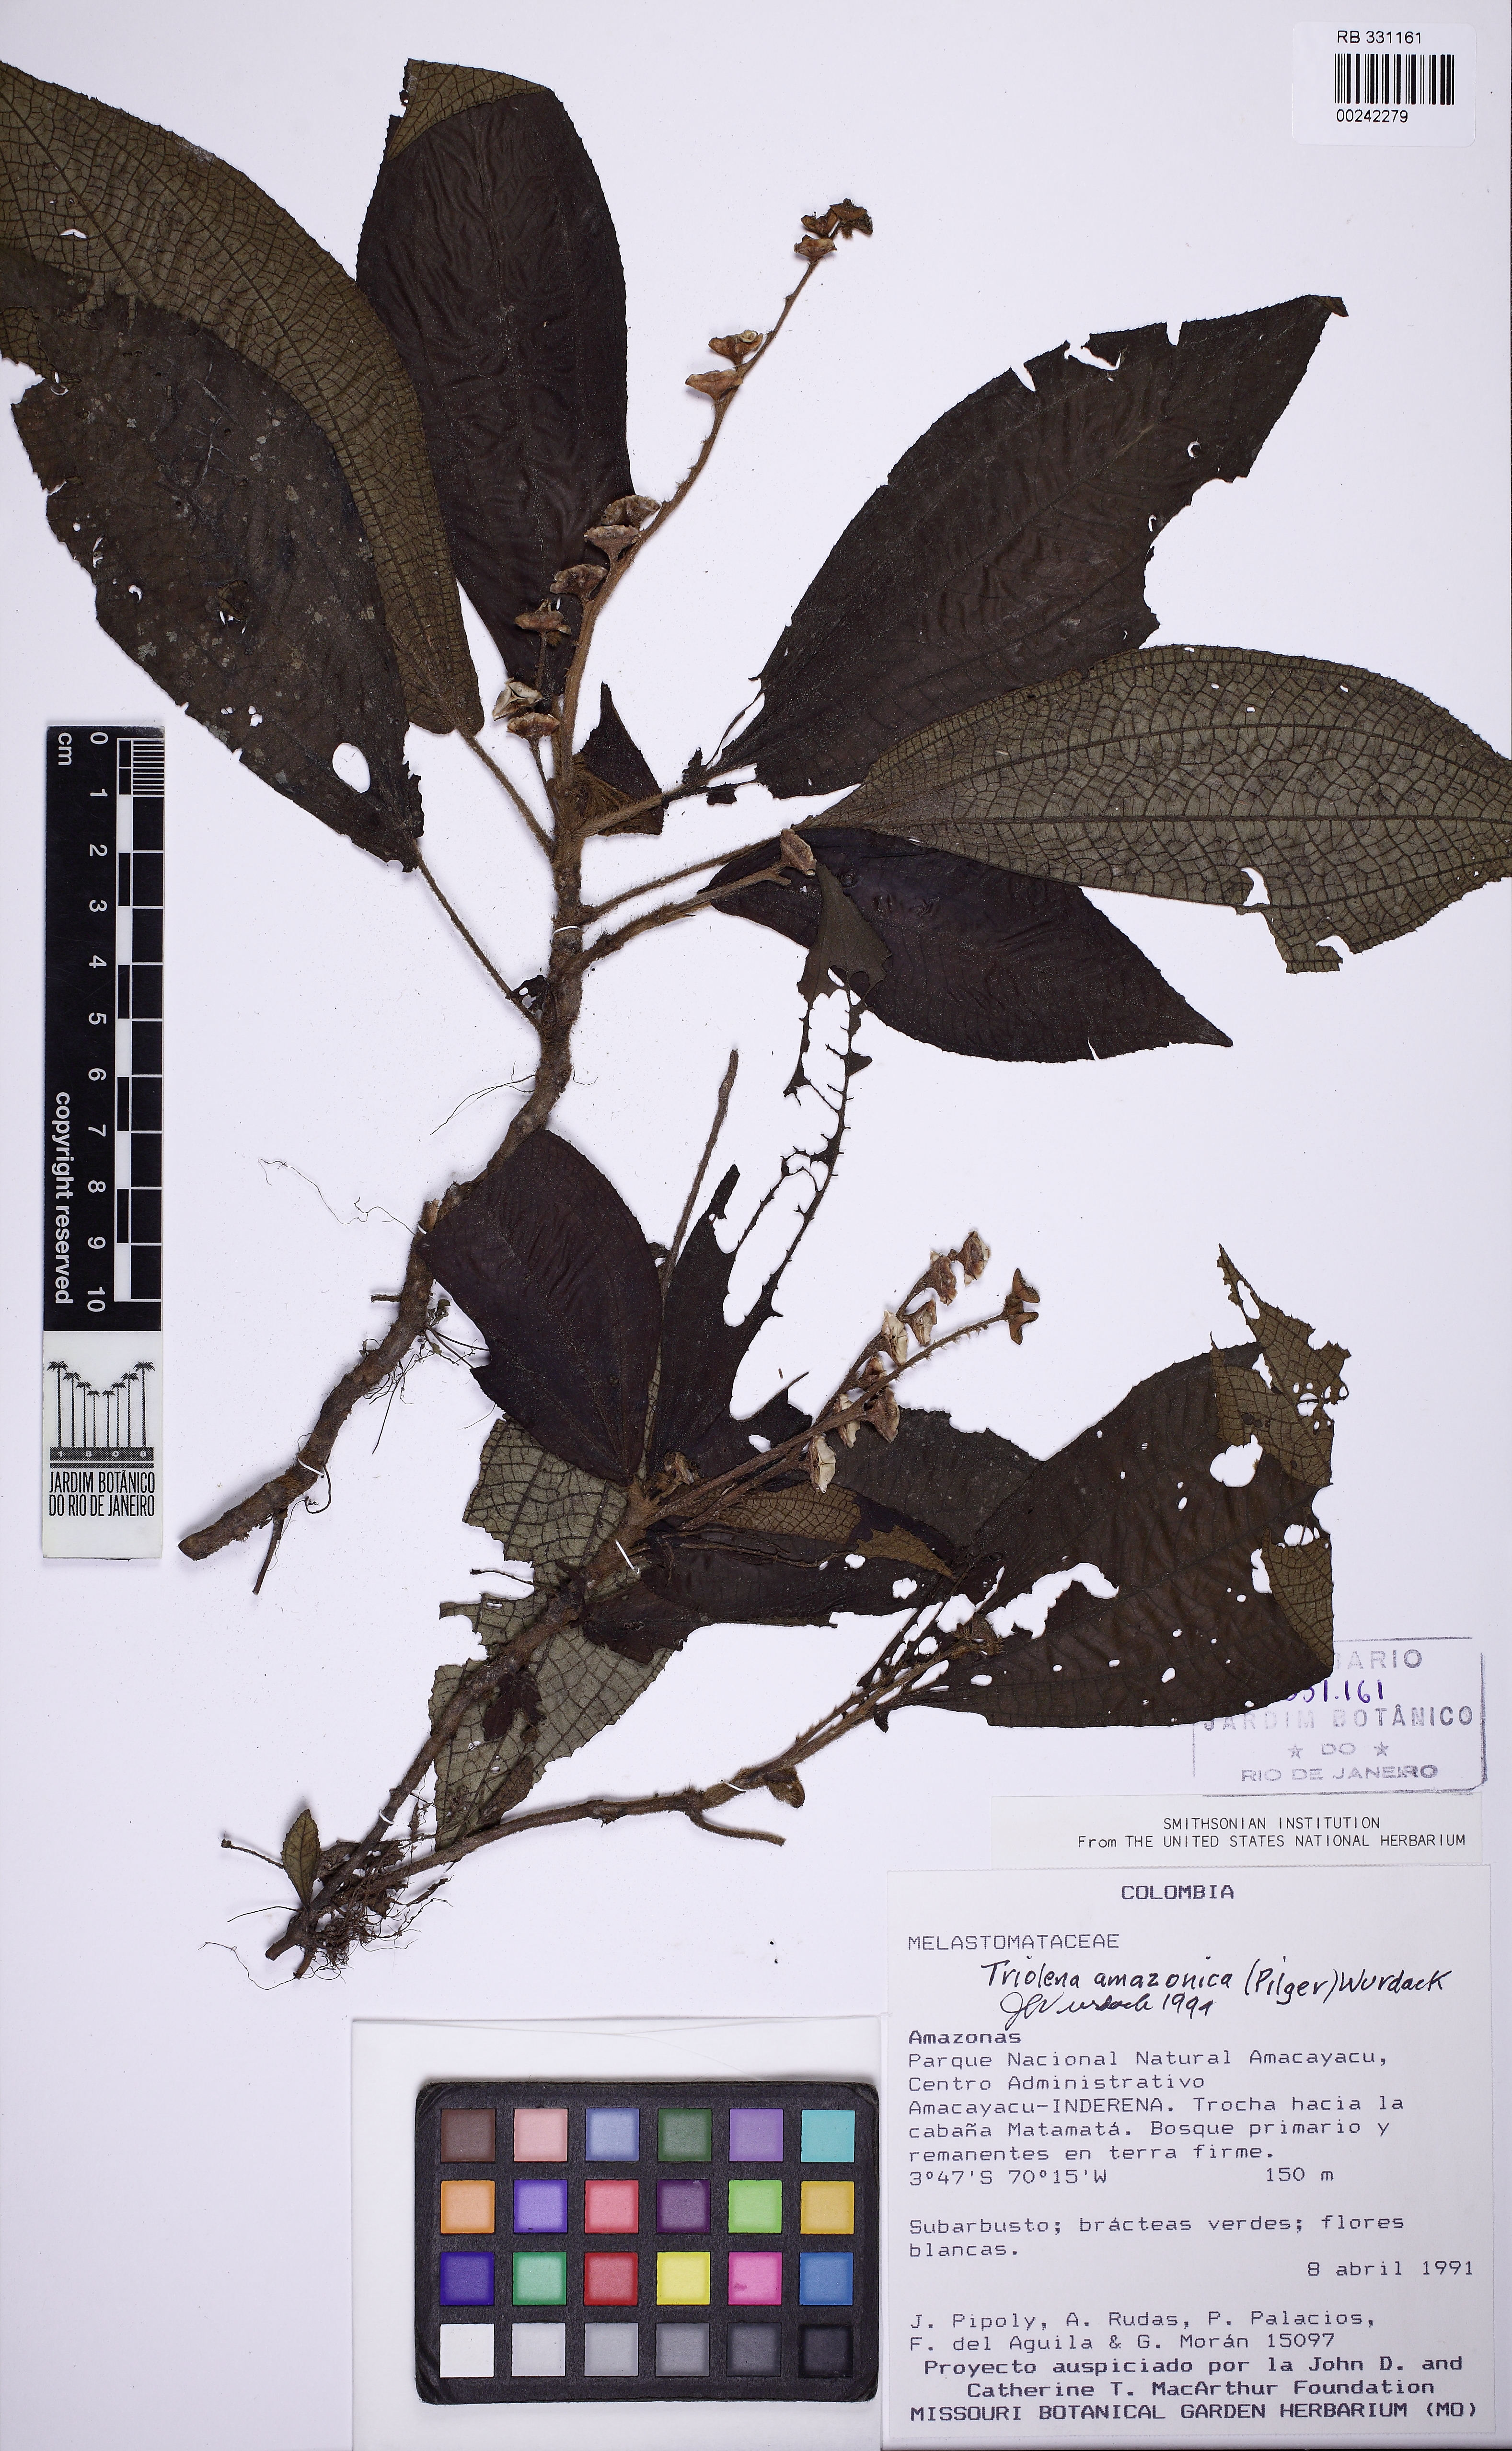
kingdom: Plantae
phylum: Tracheophyta
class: Magnoliopsida
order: Myrtales
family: Melastomataceae
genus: Triolena
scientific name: Triolena amazonica
